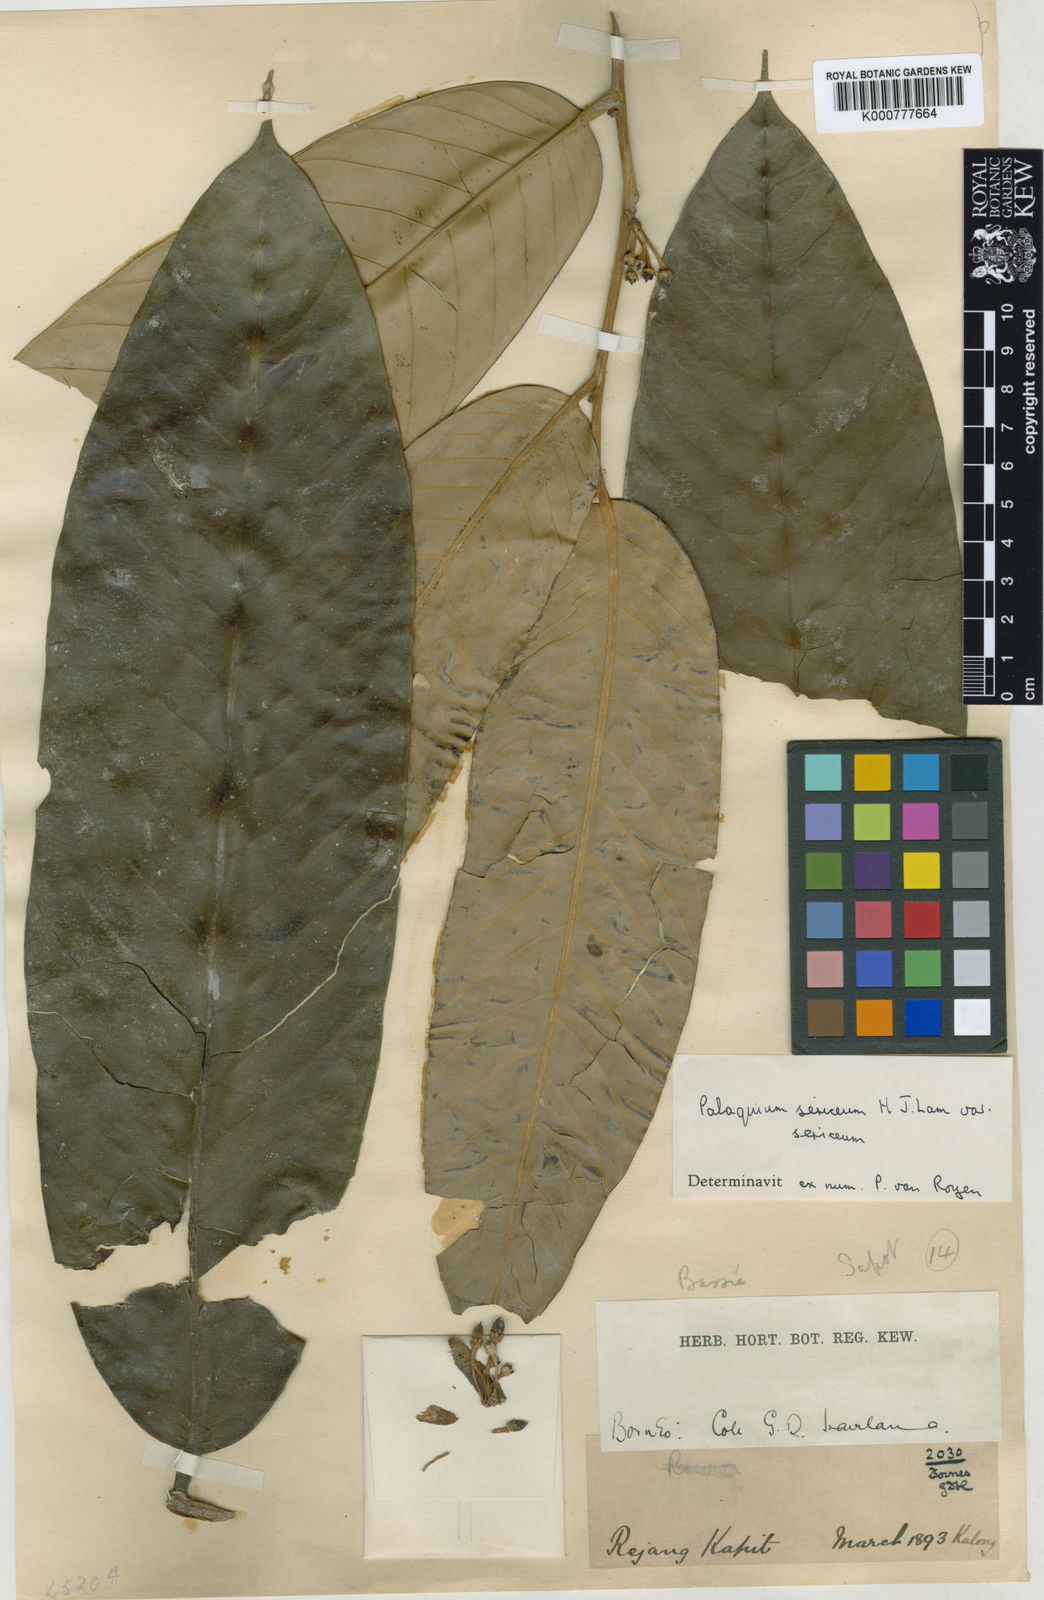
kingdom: Plantae
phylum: Tracheophyta
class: Magnoliopsida
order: Ericales
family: Sapotaceae
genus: Palaquium
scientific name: Palaquium sericeum
